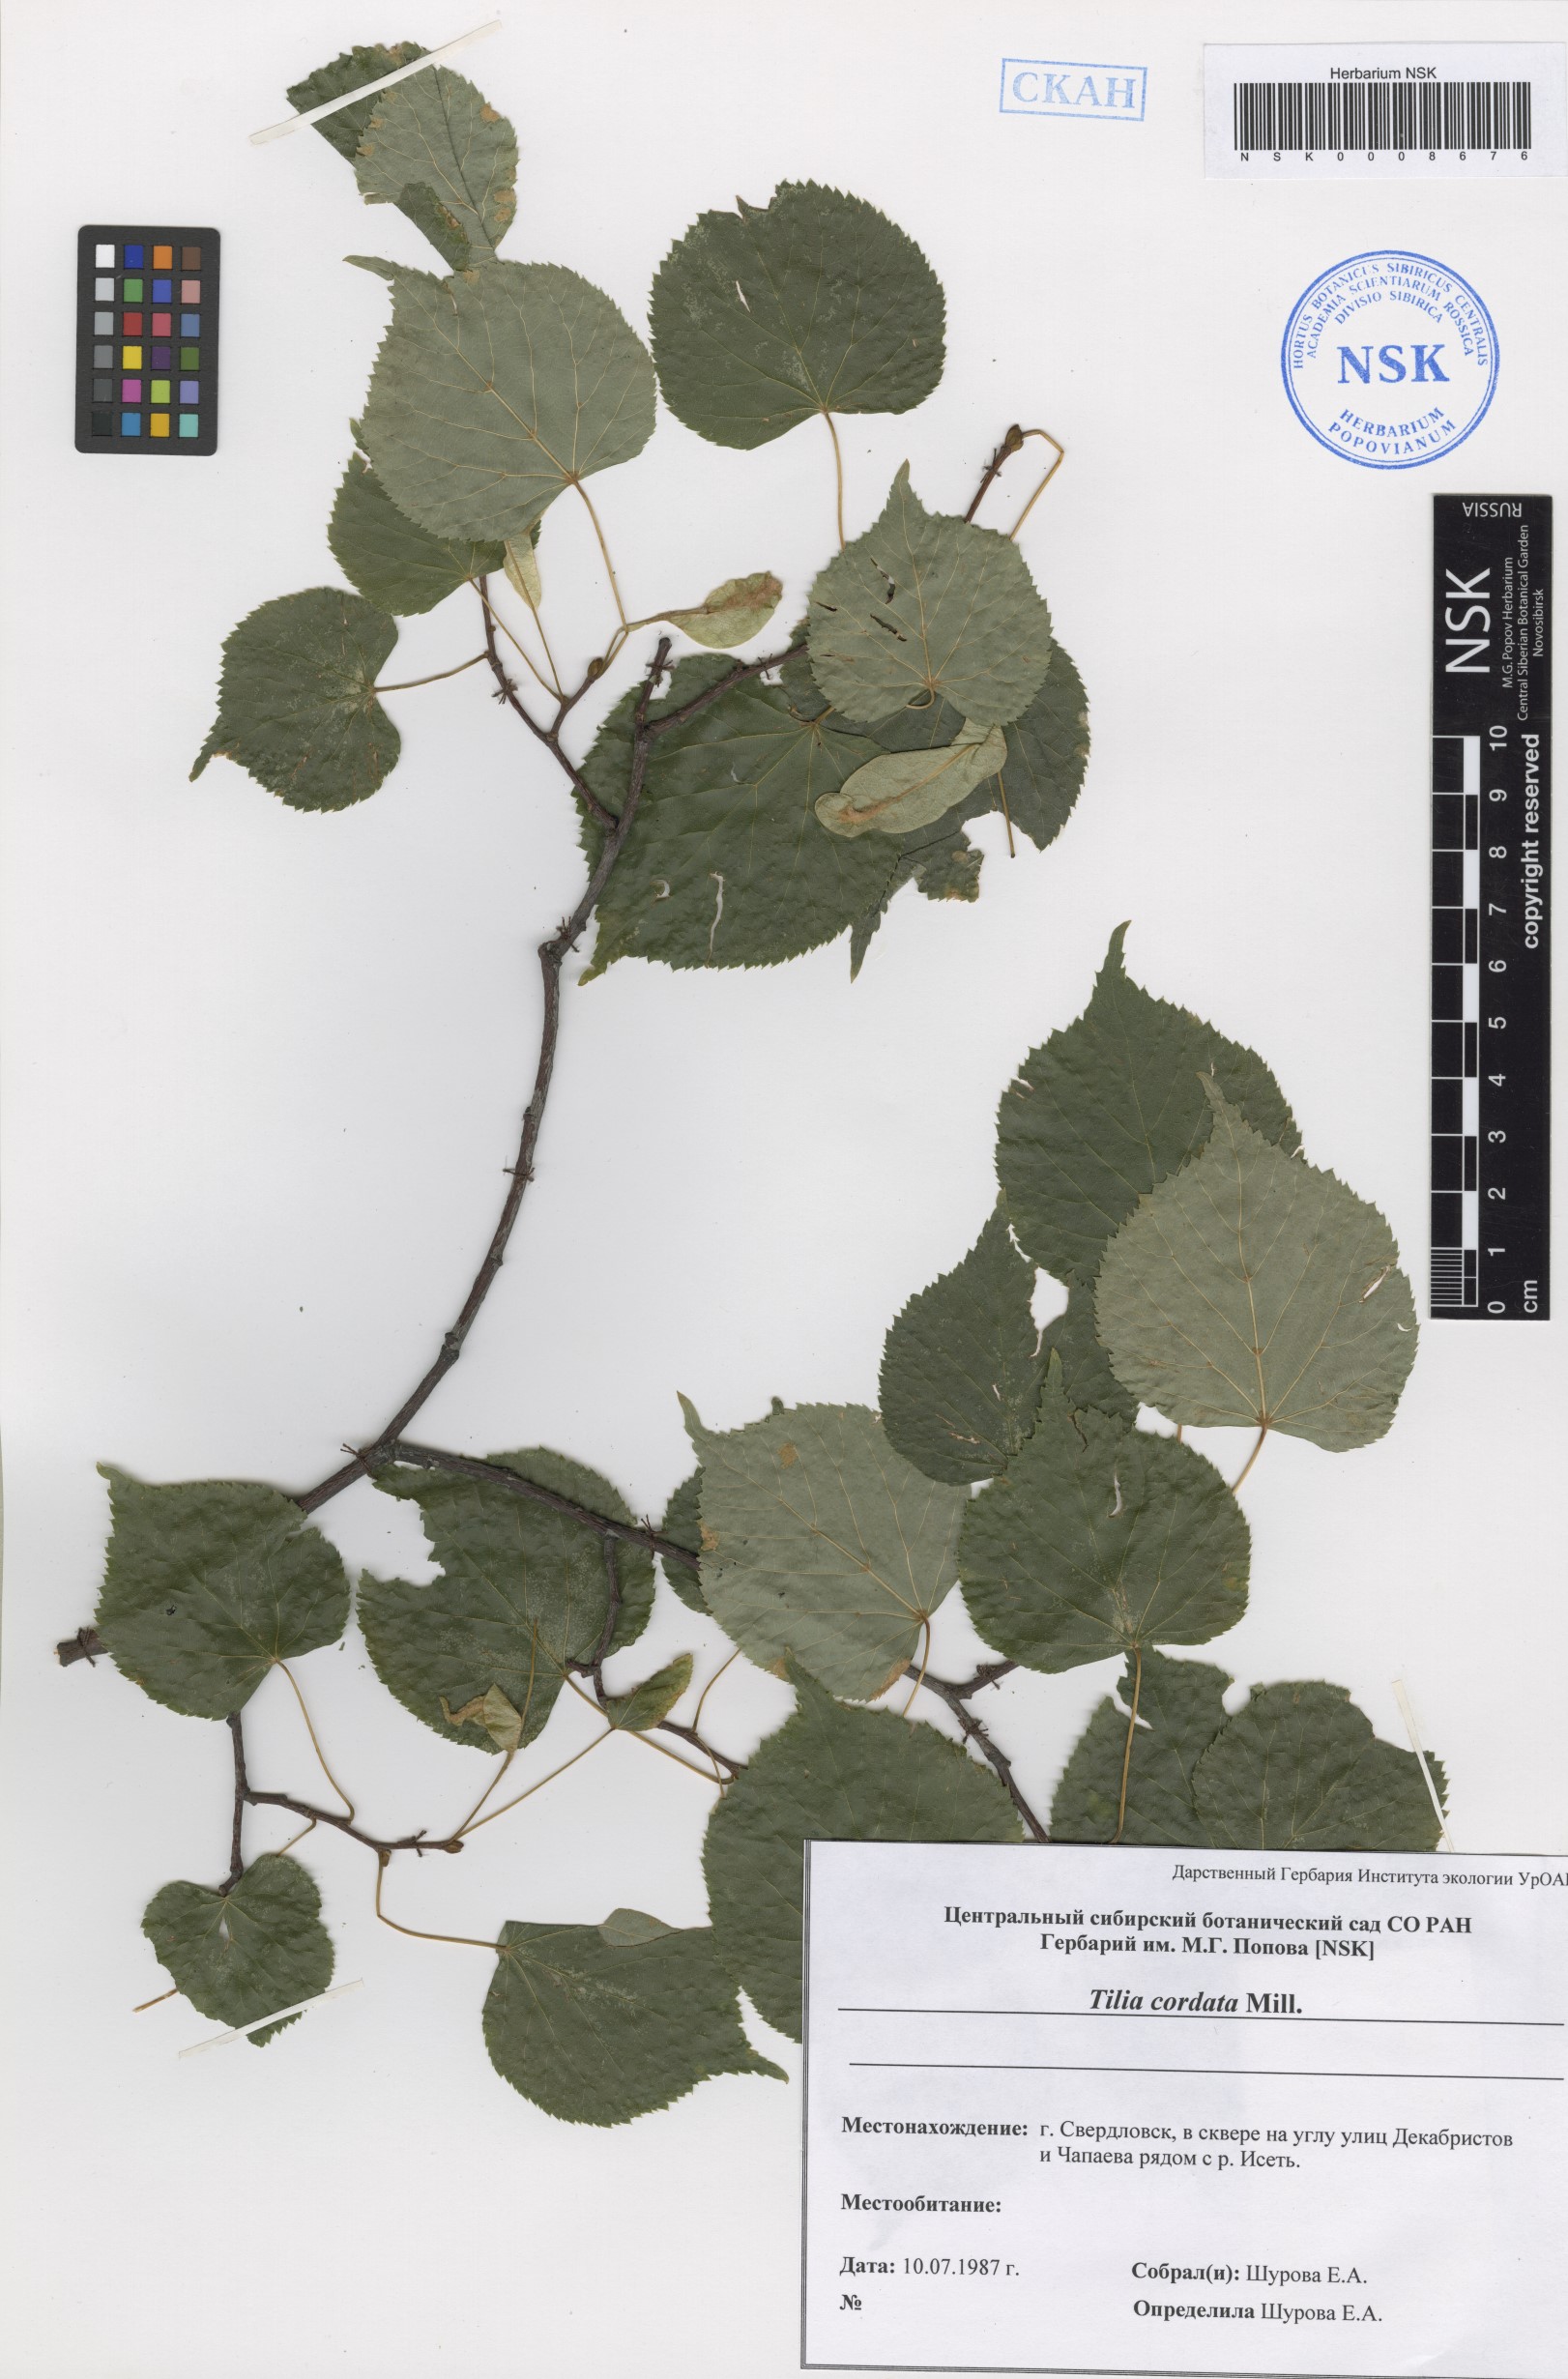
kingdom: Plantae
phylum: Tracheophyta
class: Magnoliopsida
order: Malvales
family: Malvaceae
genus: Tilia
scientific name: Tilia cordata
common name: Small-leaved lime
